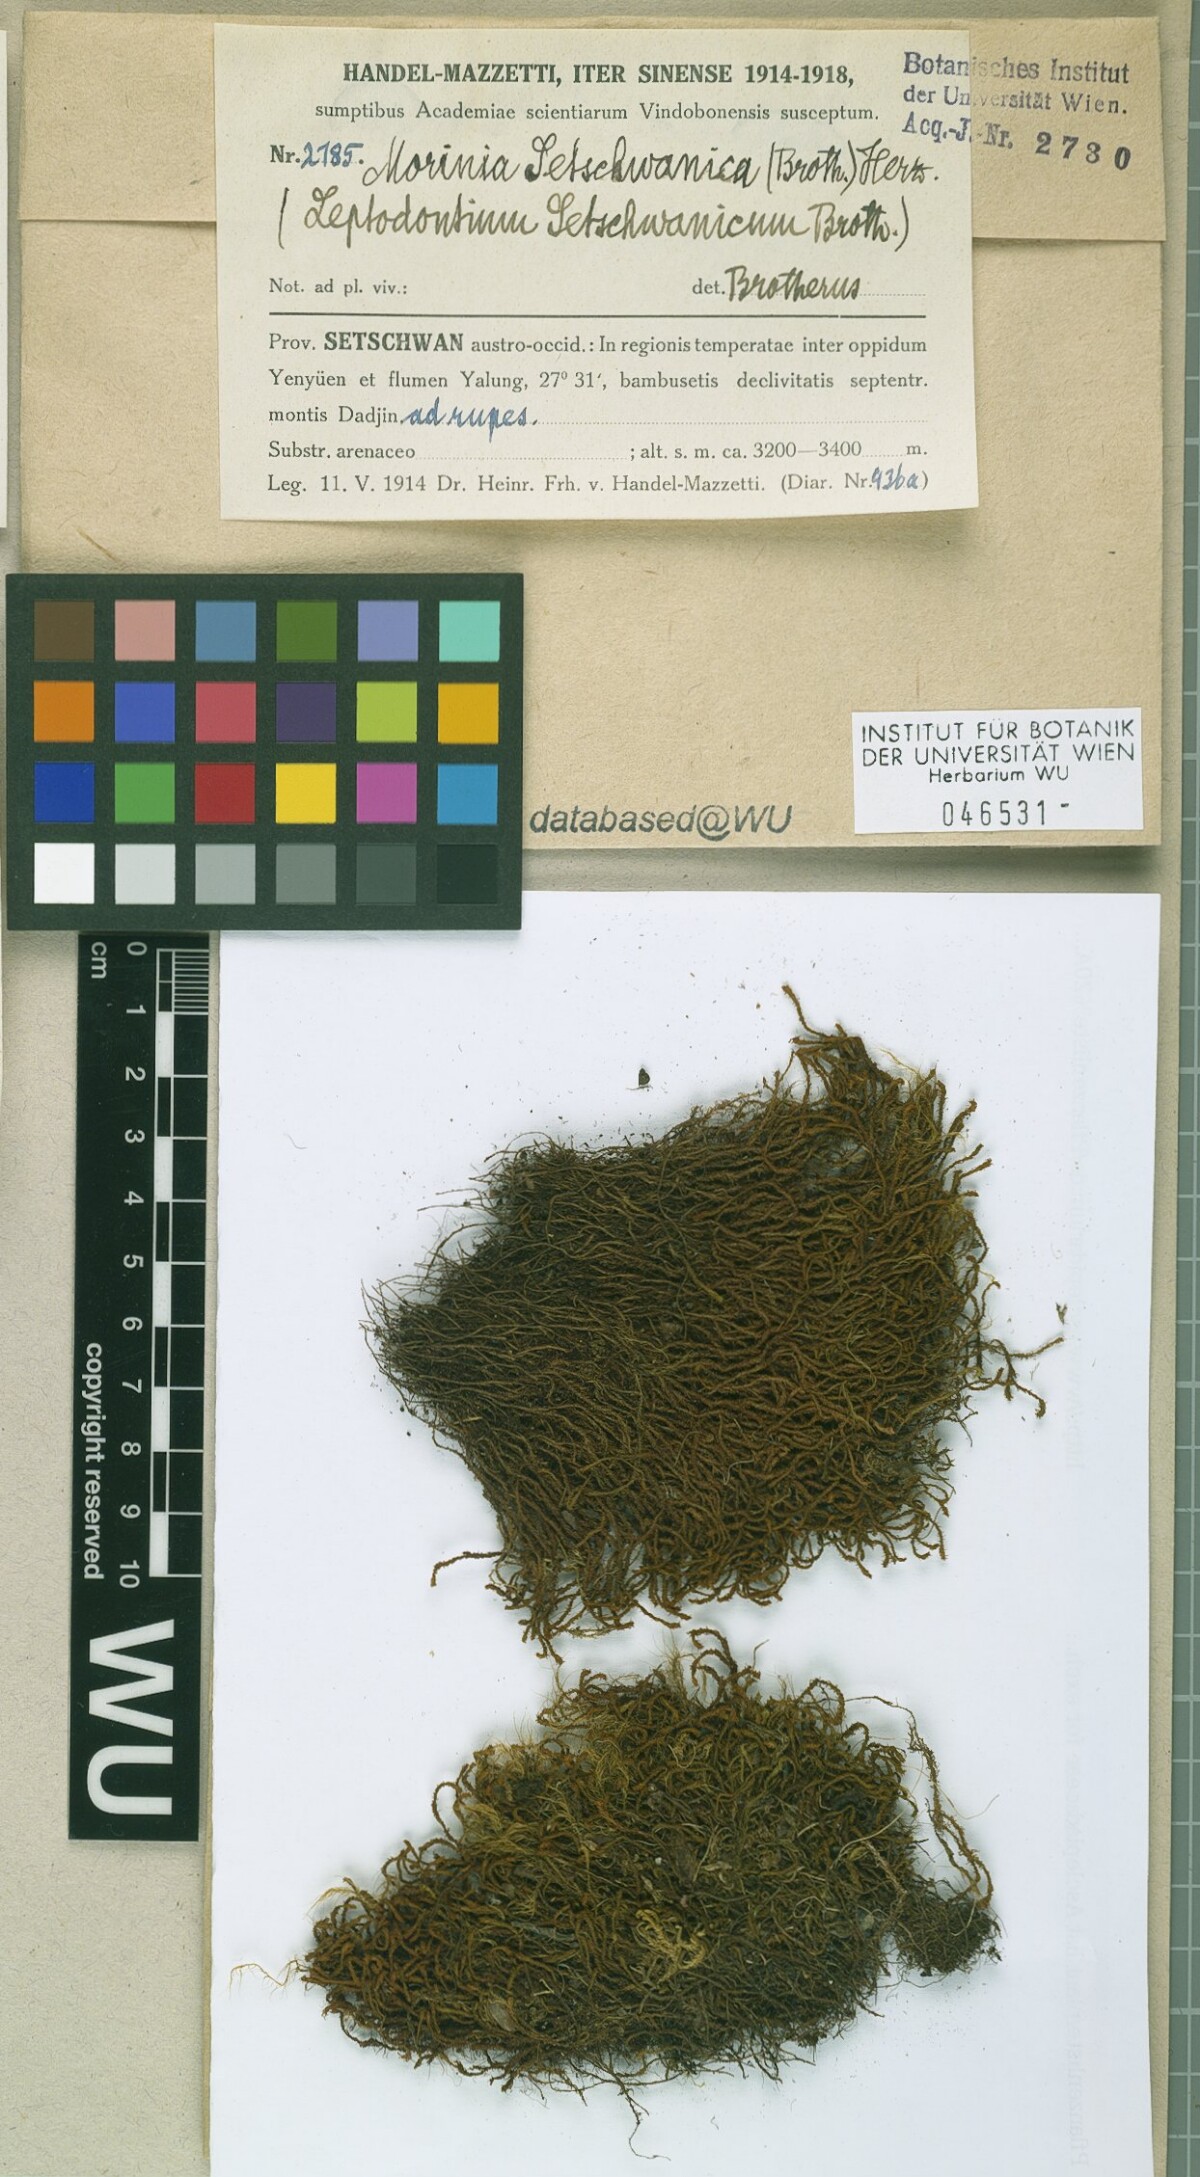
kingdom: Plantae
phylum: Bryophyta
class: Bryopsida
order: Pottiales
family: Pottiaceae
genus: Geheebia
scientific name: Geheebia erosodenticulata
